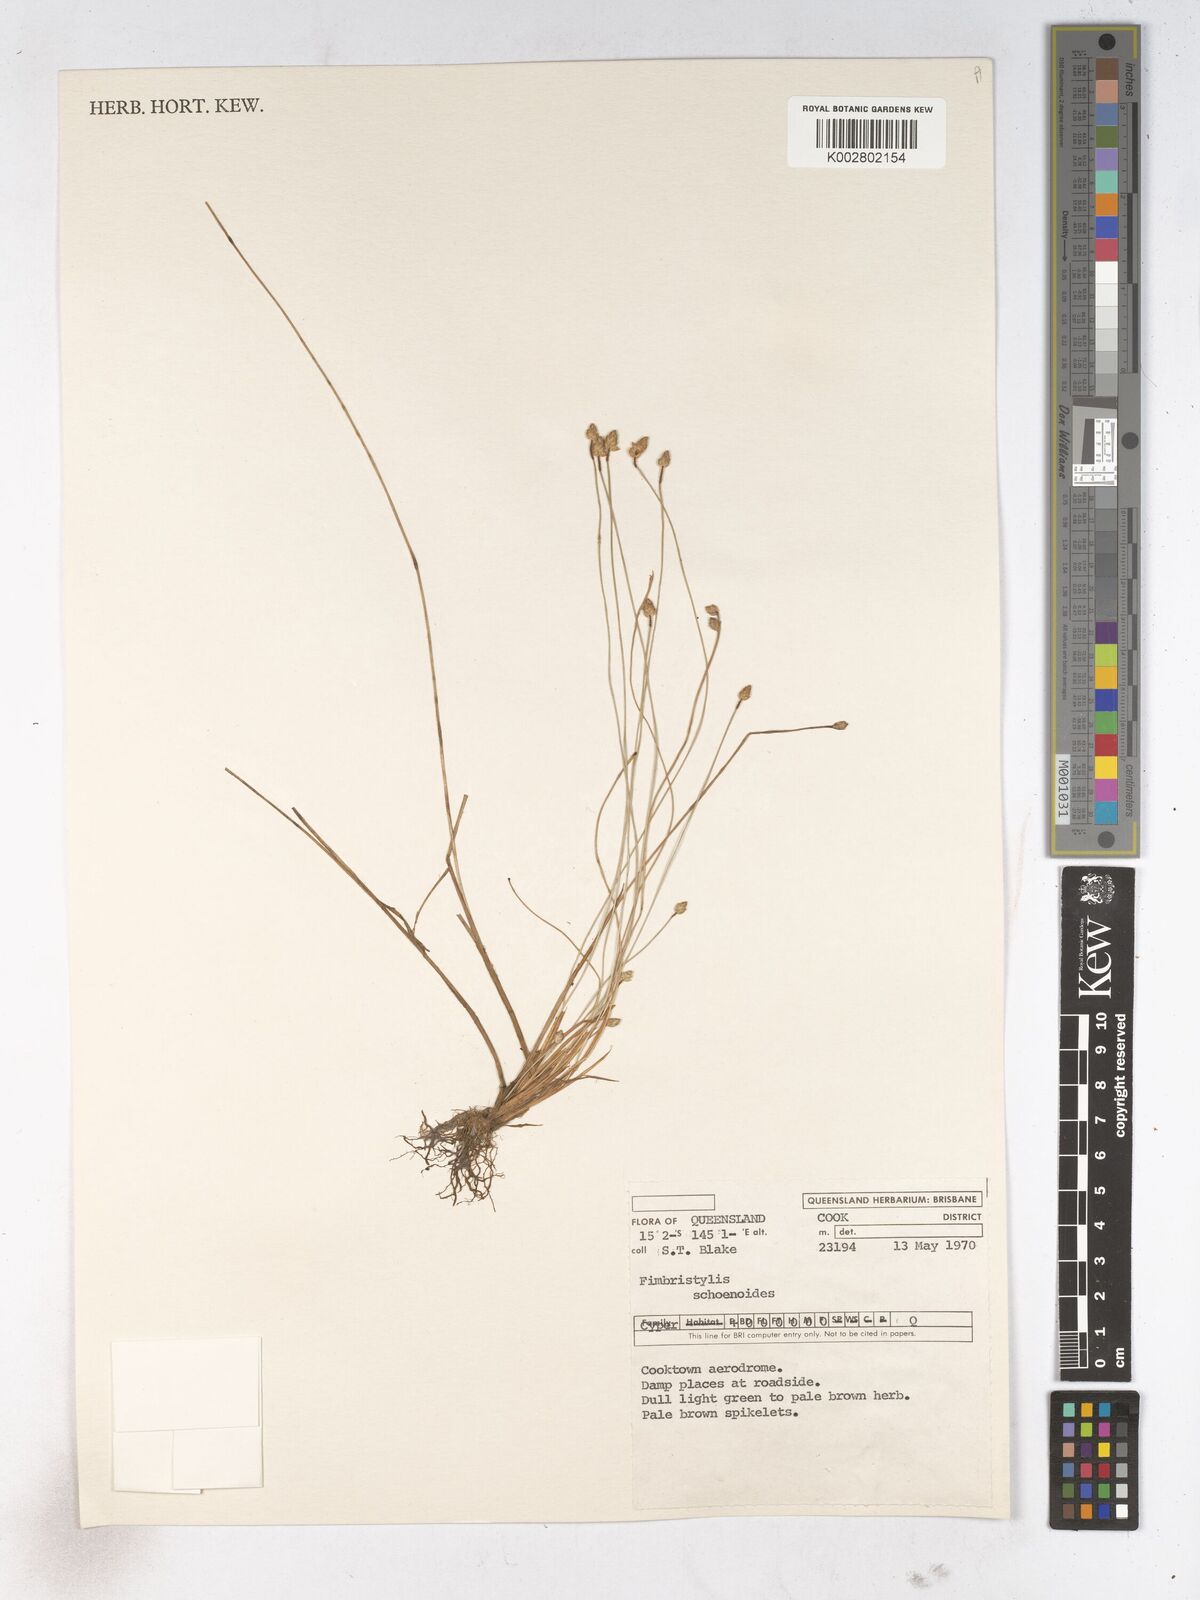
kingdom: Plantae
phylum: Tracheophyta
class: Liliopsida
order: Poales
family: Cyperaceae
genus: Fimbristylis
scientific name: Fimbristylis schoenoides
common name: Ditch fimbry
